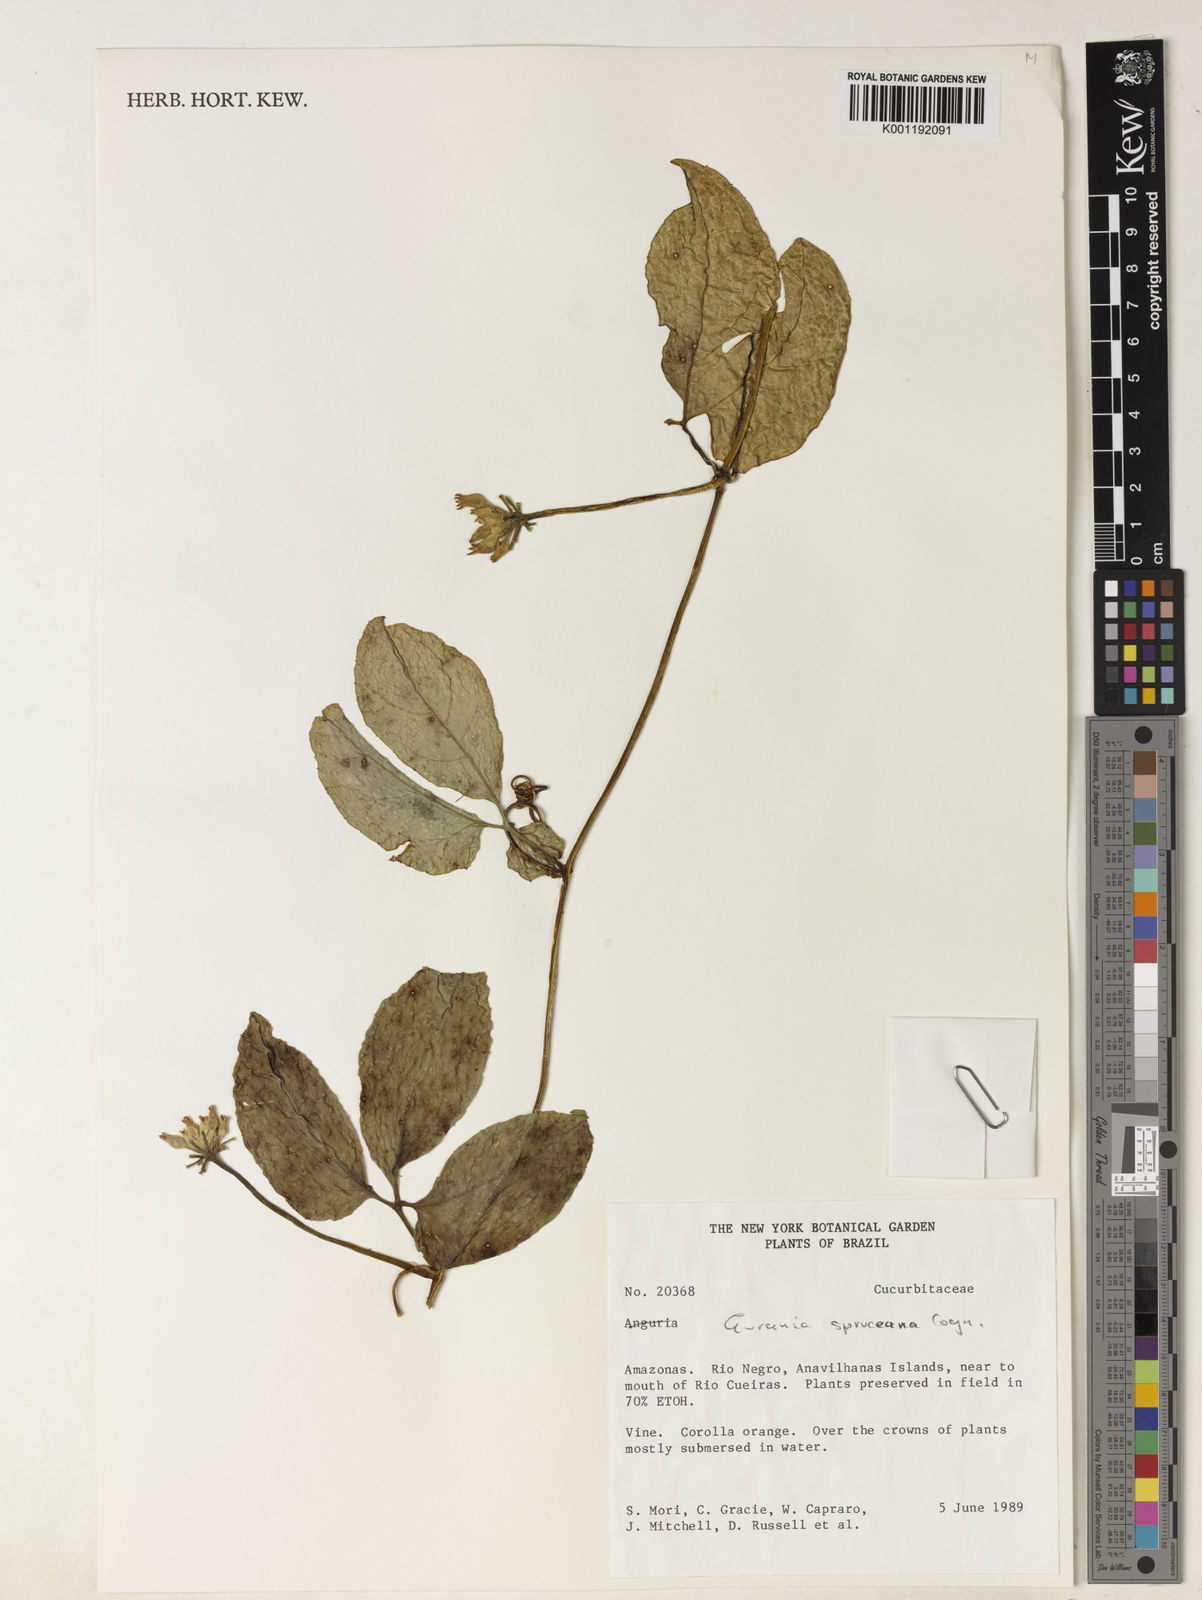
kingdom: Plantae
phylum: Tracheophyta
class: Magnoliopsida
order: Cucurbitales
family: Cucurbitaceae
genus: Gurania
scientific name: Gurania spruceana
